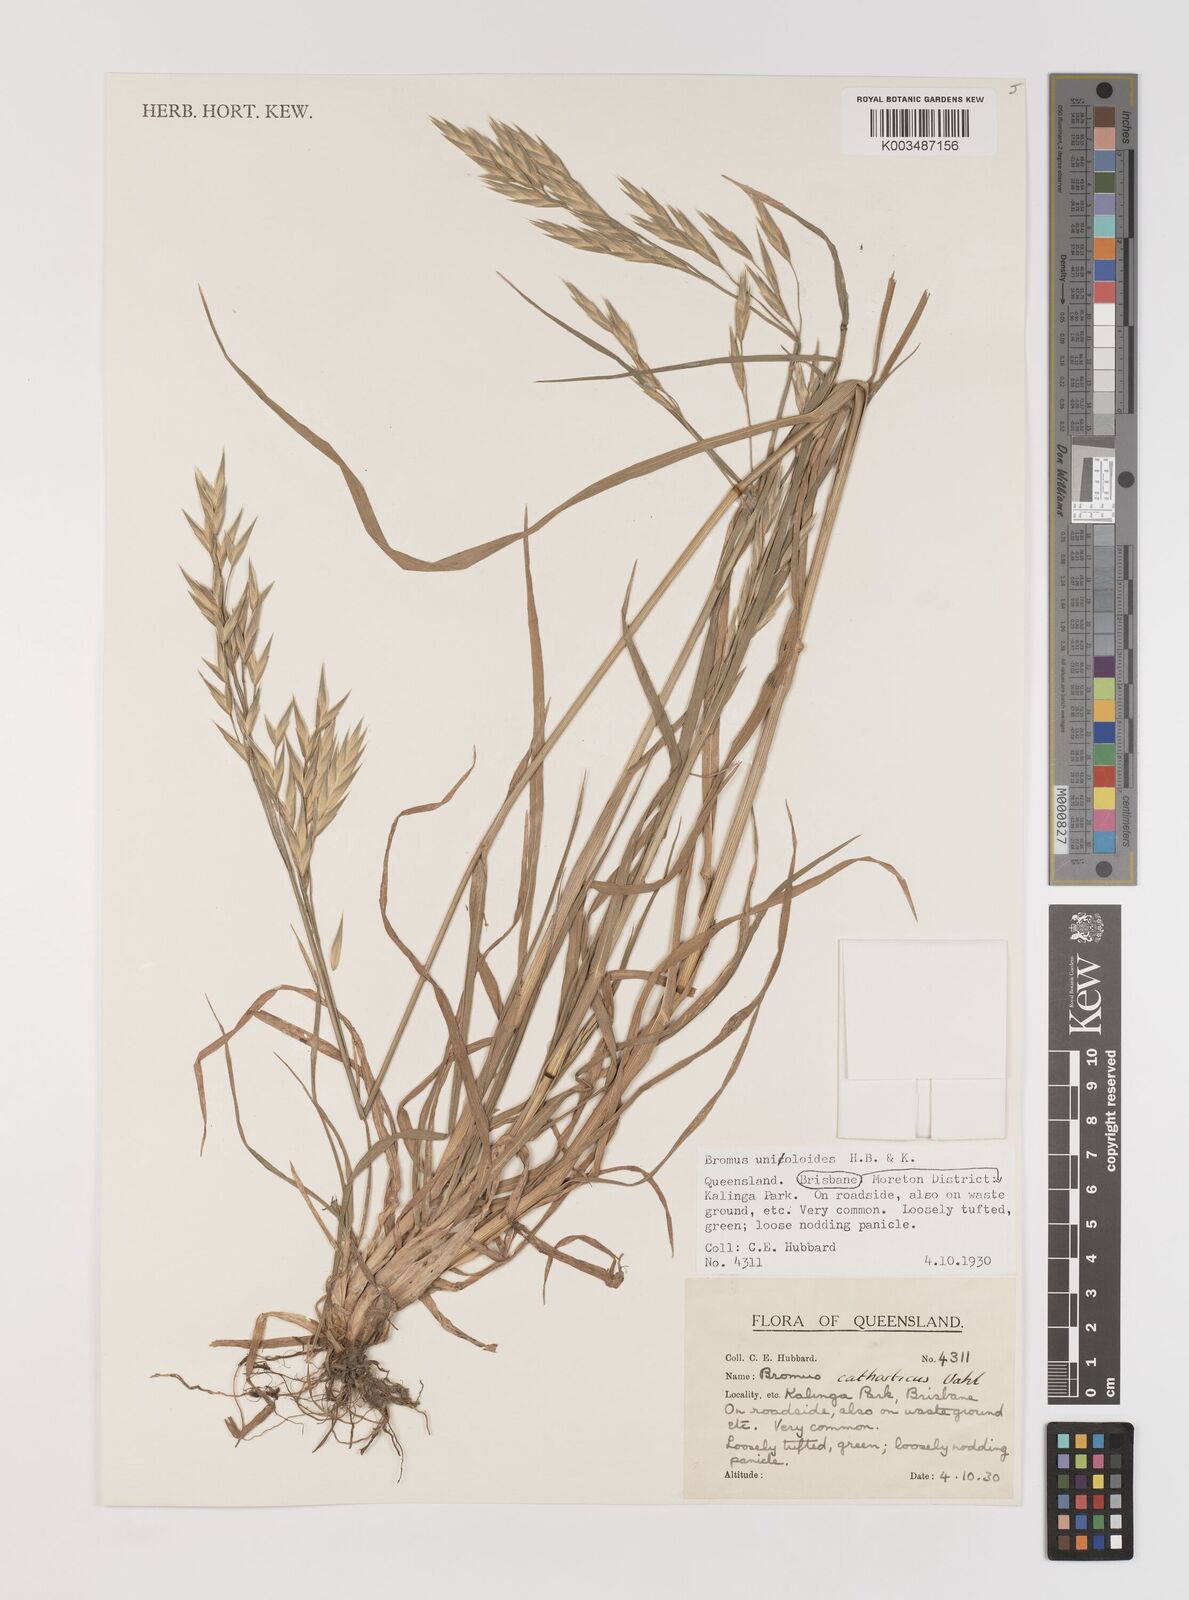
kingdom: Plantae
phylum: Tracheophyta
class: Liliopsida
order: Poales
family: Poaceae
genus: Bromus
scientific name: Bromus catharticus
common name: Rescuegrass
